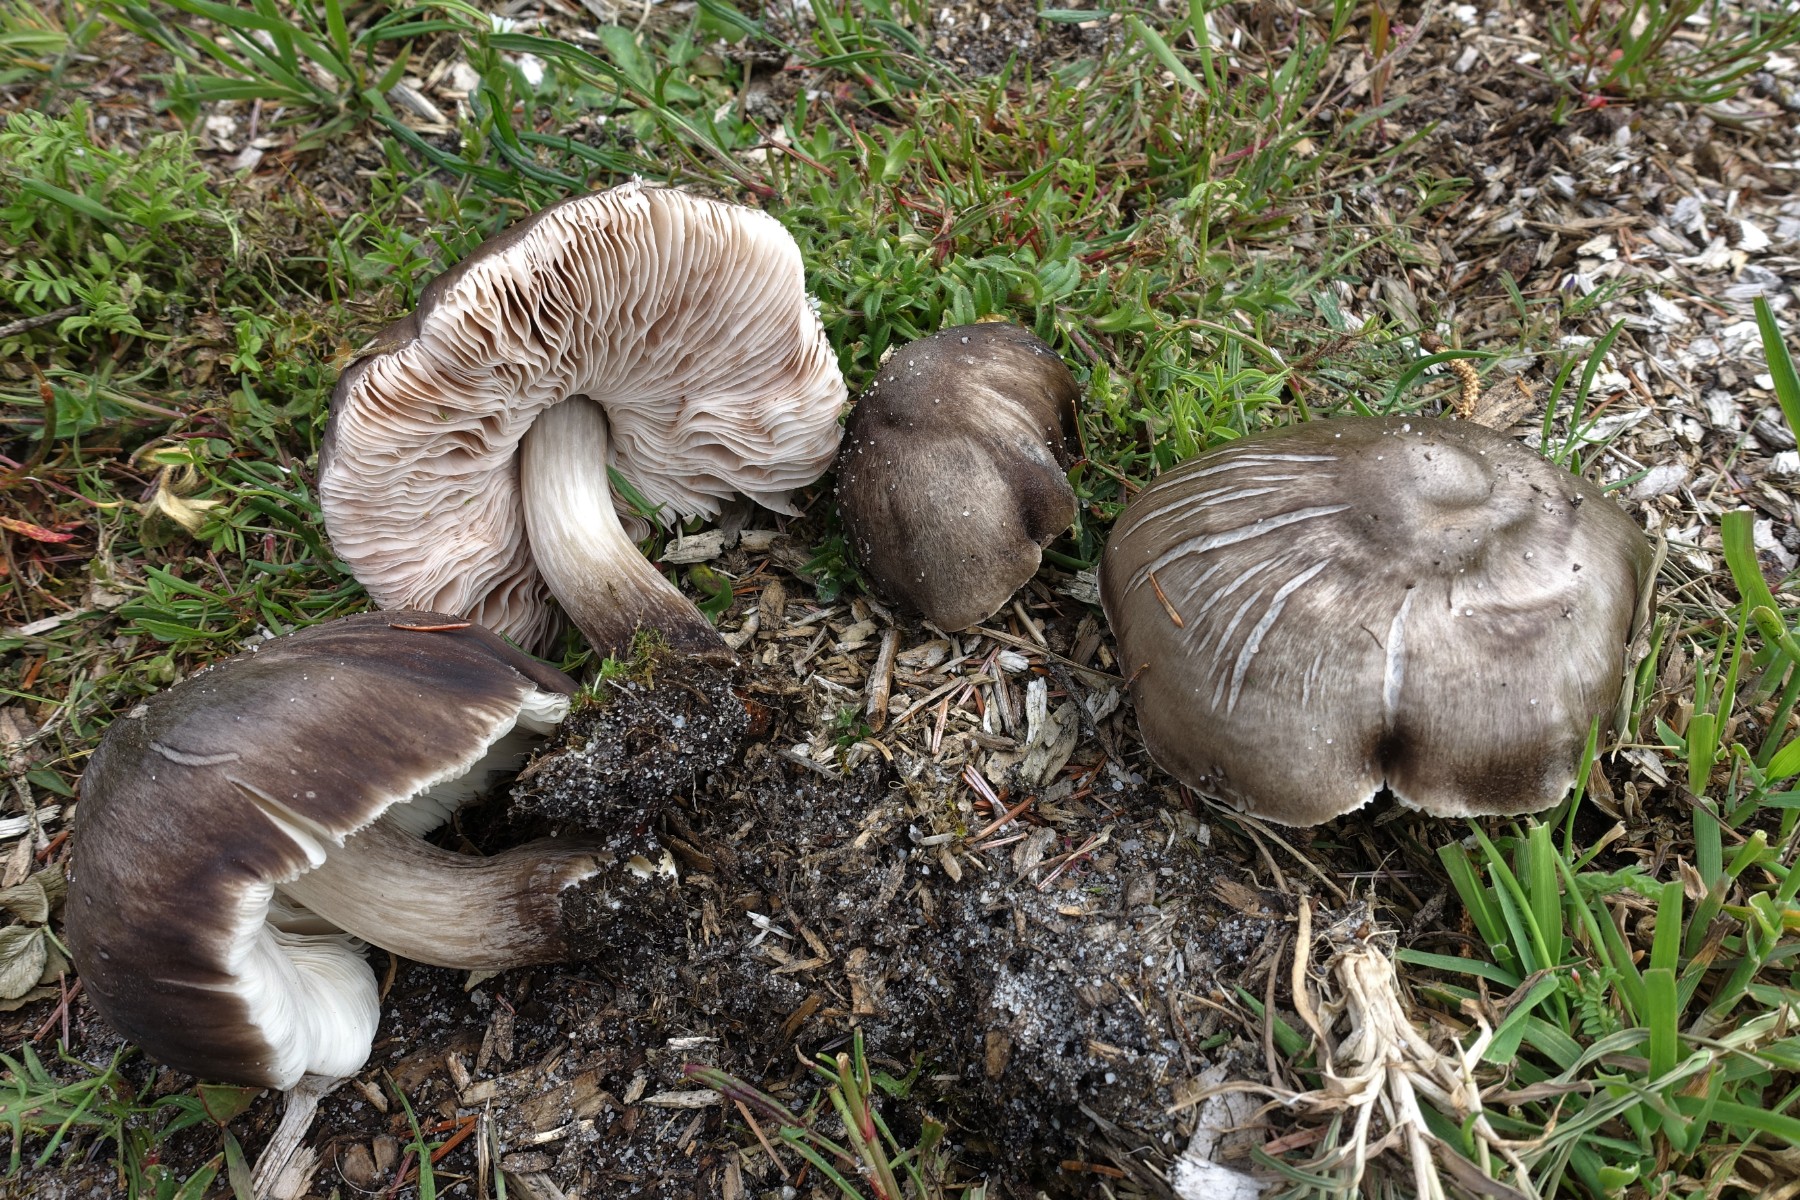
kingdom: Fungi
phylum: Basidiomycota
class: Agaricomycetes
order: Agaricales
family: Pluteaceae
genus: Pluteus
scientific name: Pluteus cervinus
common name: sodfarvet skærmhat
